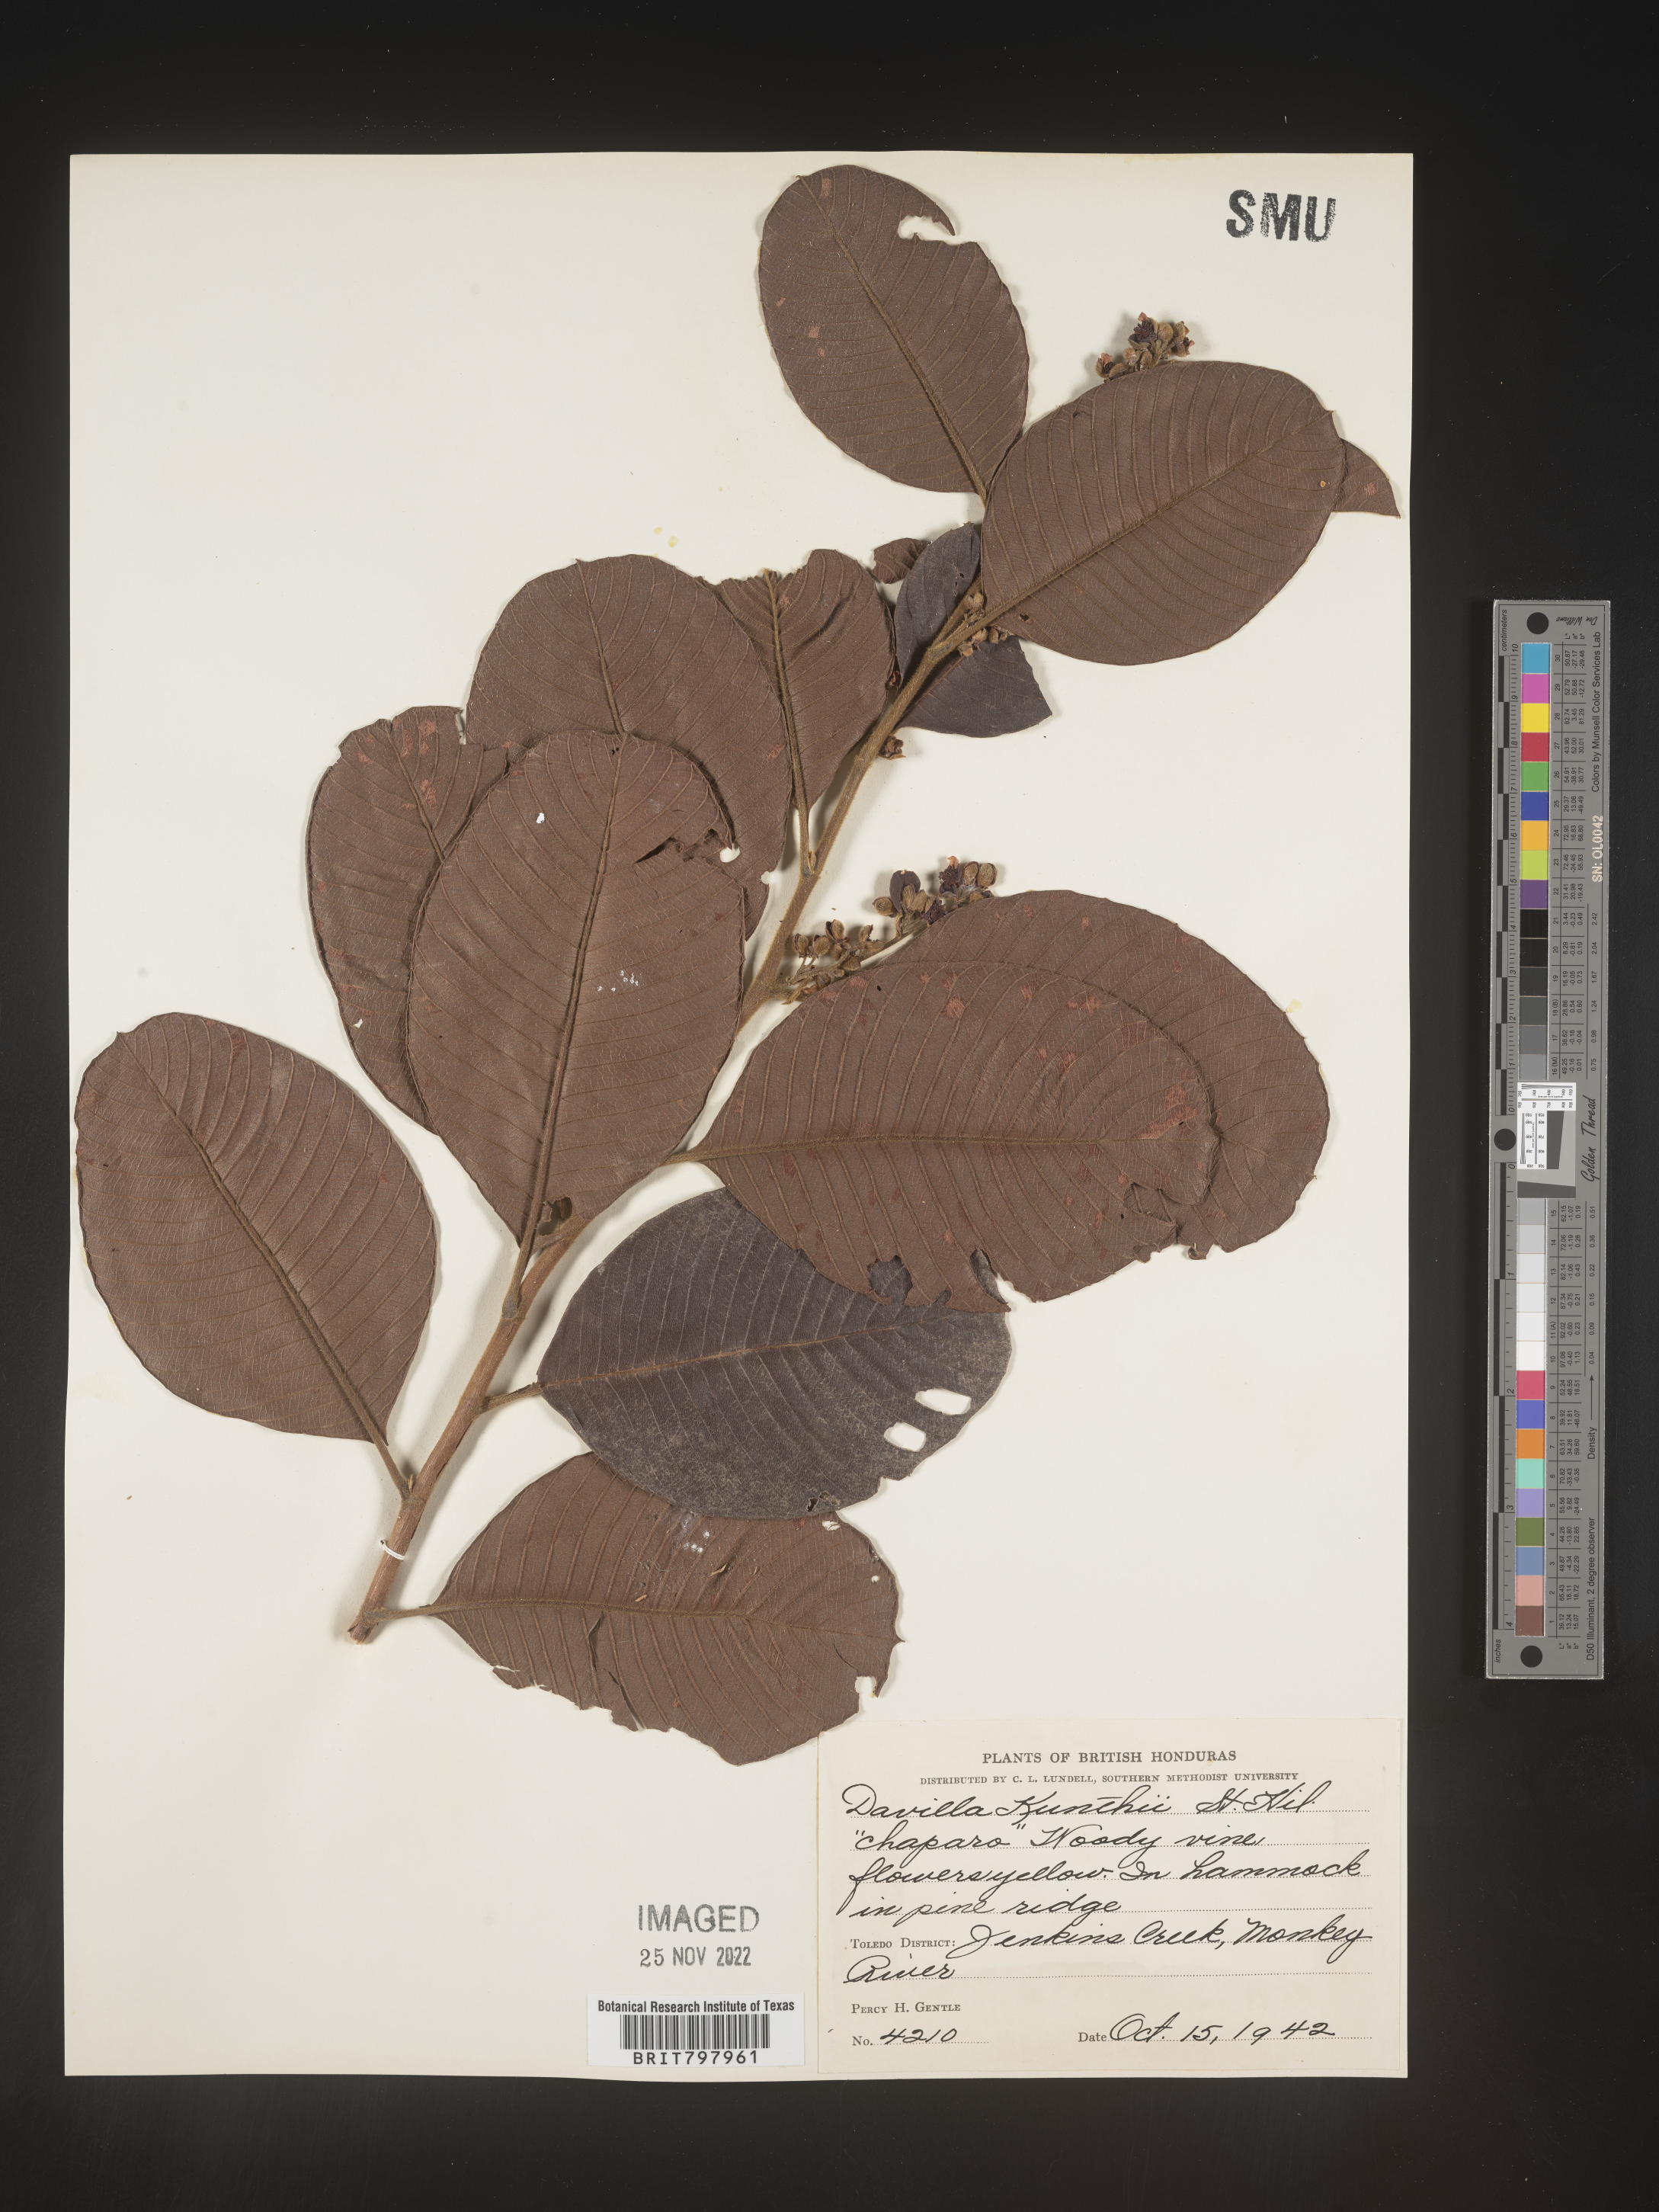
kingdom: Plantae
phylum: Tracheophyta
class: Polypodiopsida
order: Polypodiales
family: Davalliaceae
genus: Davallia
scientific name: Davallia
